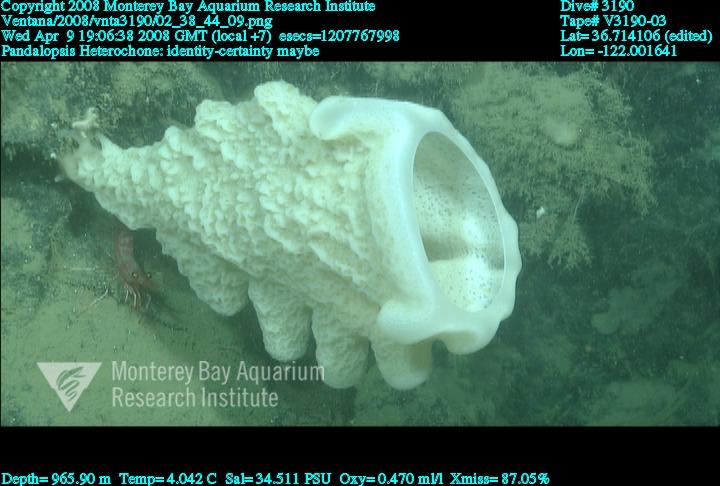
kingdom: Animalia
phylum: Porifera
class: Hexactinellida
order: Sceptrulophora
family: Aphrocallistidae
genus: Heterochone
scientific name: Heterochone
